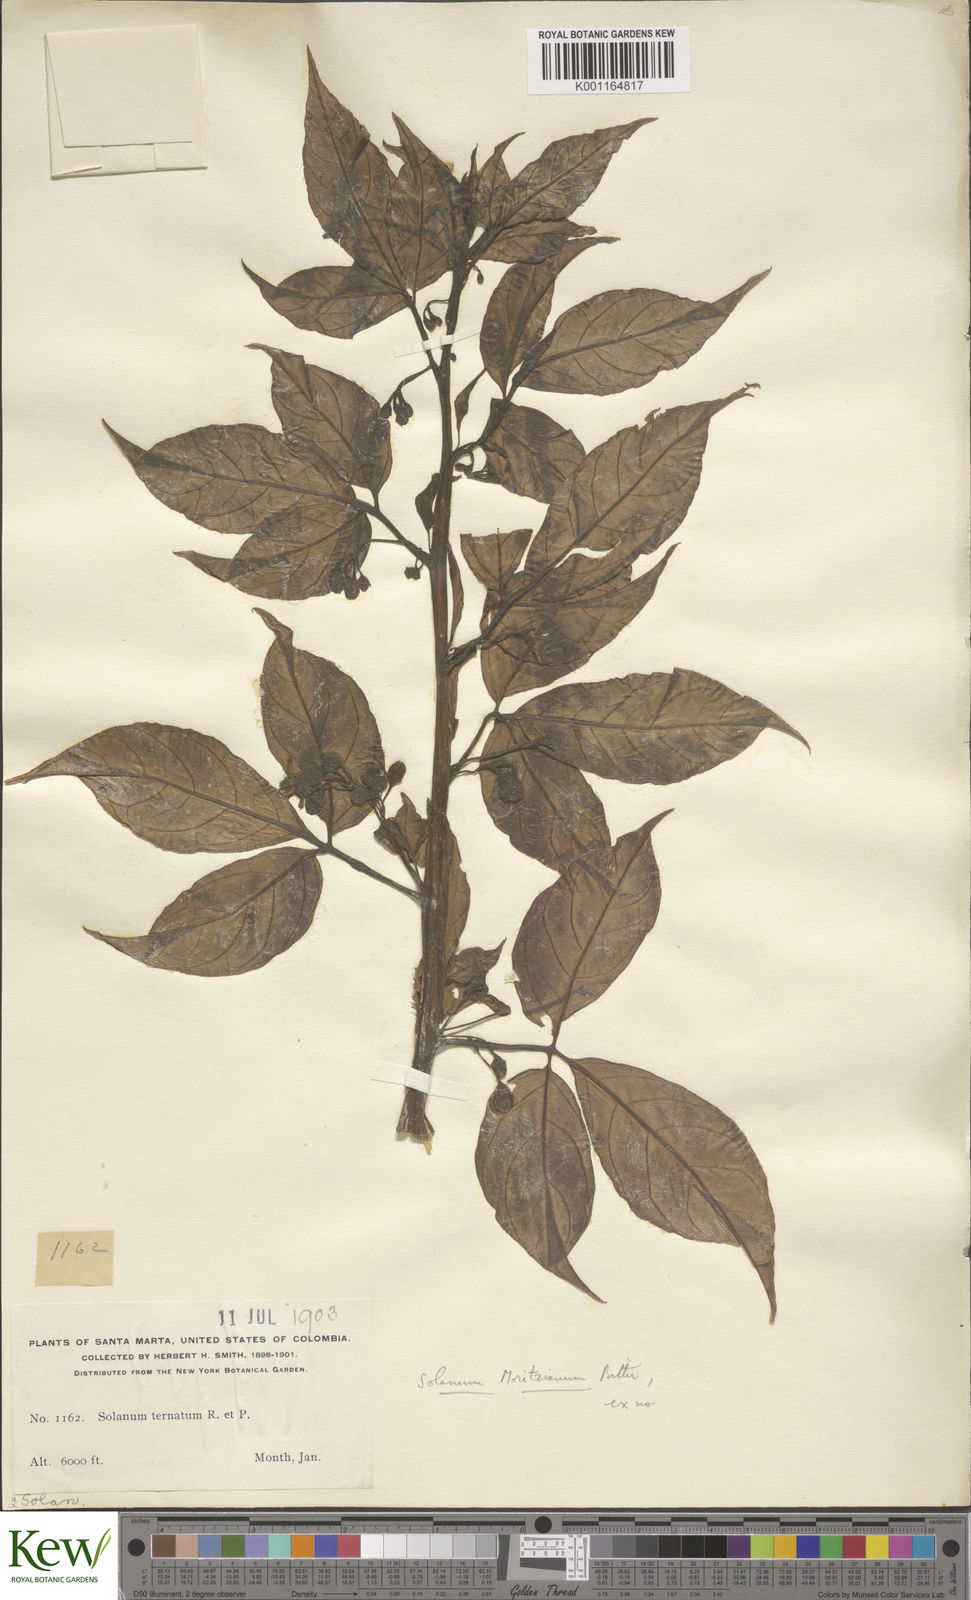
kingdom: Plantae
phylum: Tracheophyta
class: Magnoliopsida
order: Solanales
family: Solanaceae
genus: Solanum
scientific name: Solanum ternatum
